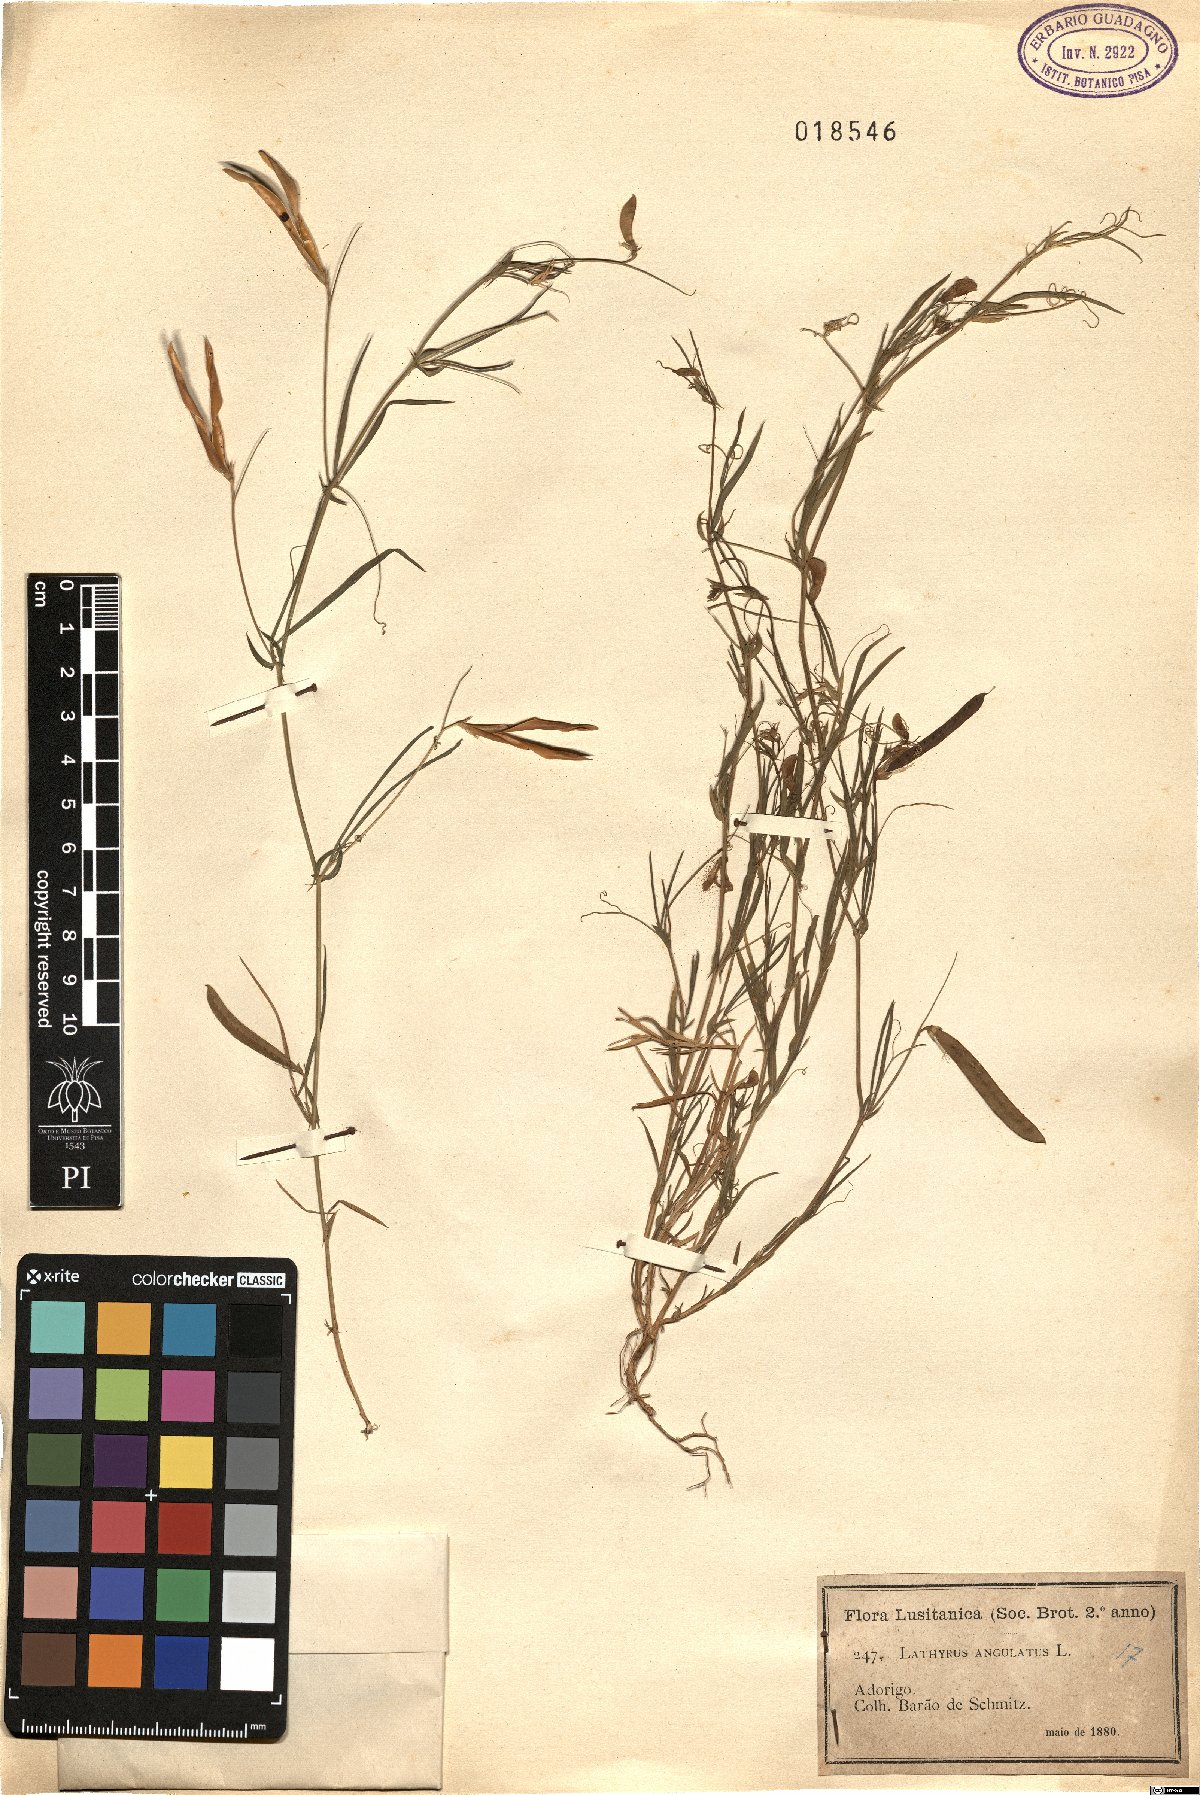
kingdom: Plantae
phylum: Tracheophyta
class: Magnoliopsida
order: Fabales
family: Fabaceae
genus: Lathyrus
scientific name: Lathyrus angulatus
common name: Angular pea
